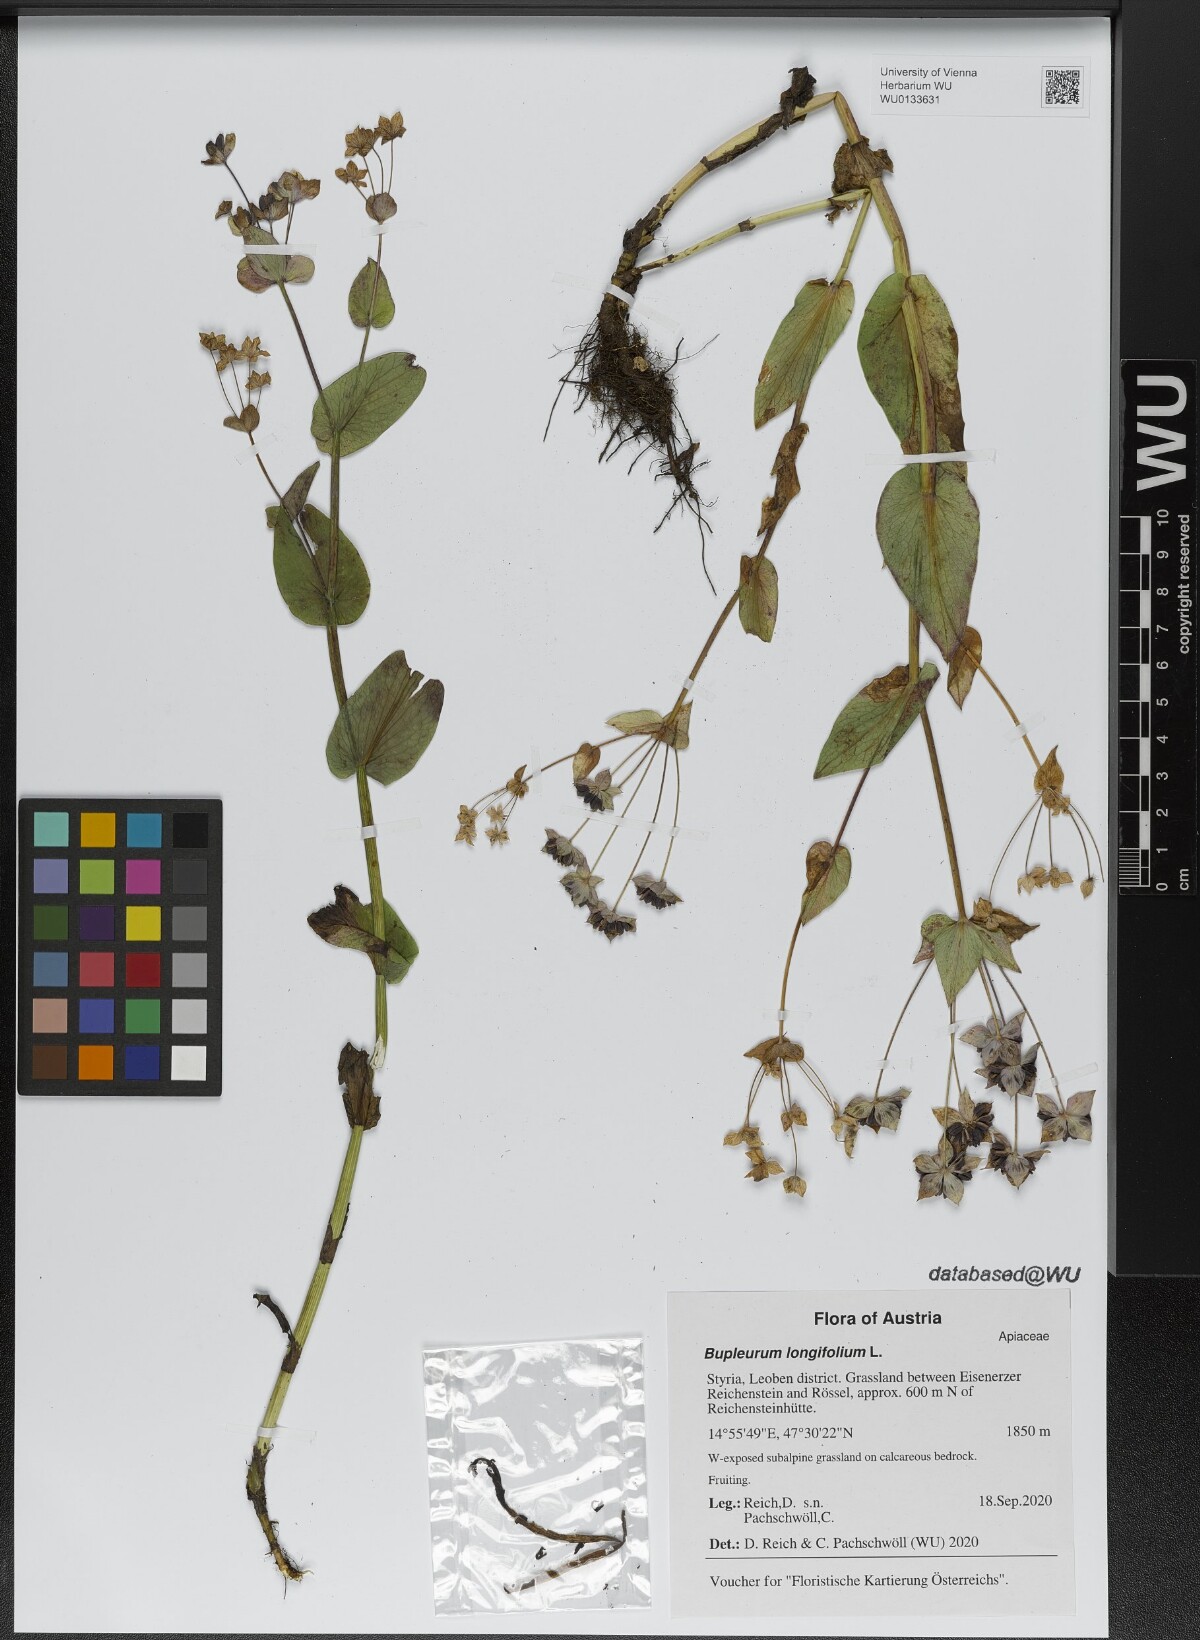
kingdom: Plantae
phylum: Tracheophyta
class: Magnoliopsida
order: Apiales
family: Apiaceae
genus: Bupleurum
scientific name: Bupleurum longifolium
